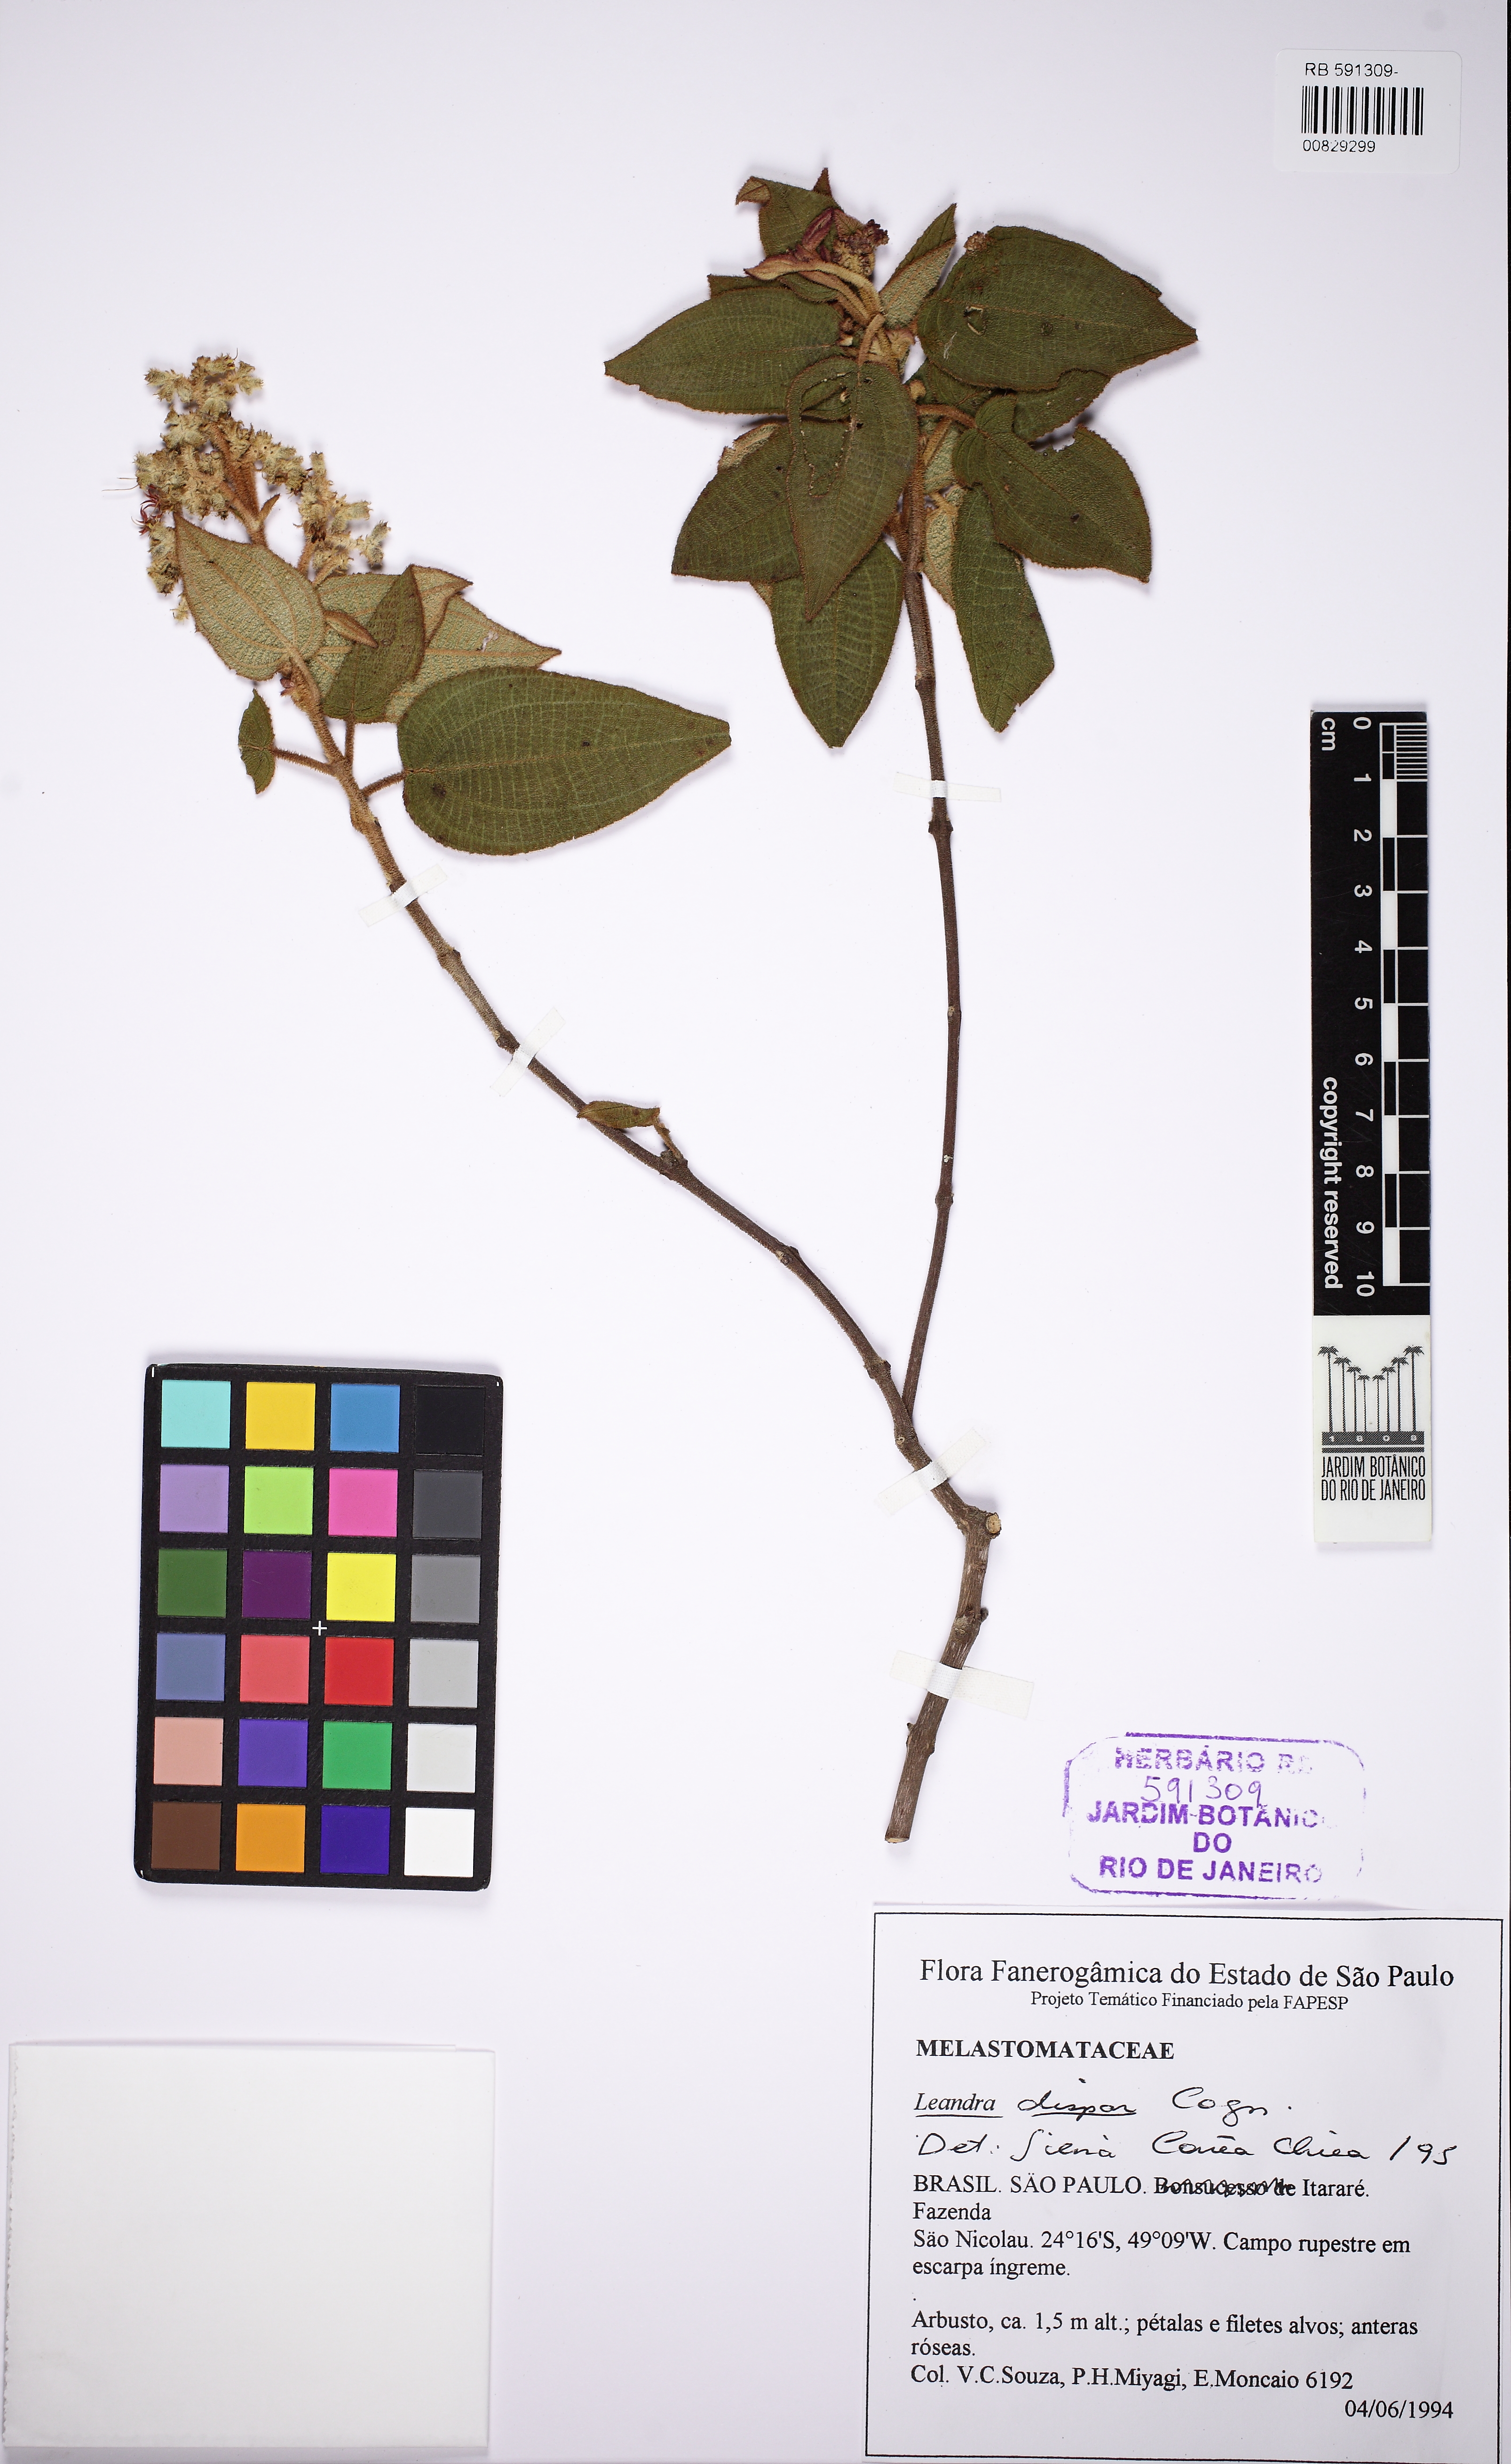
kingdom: Plantae
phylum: Tracheophyta
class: Magnoliopsida
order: Myrtales
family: Melastomataceae
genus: Miconia
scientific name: Miconia sublanata
